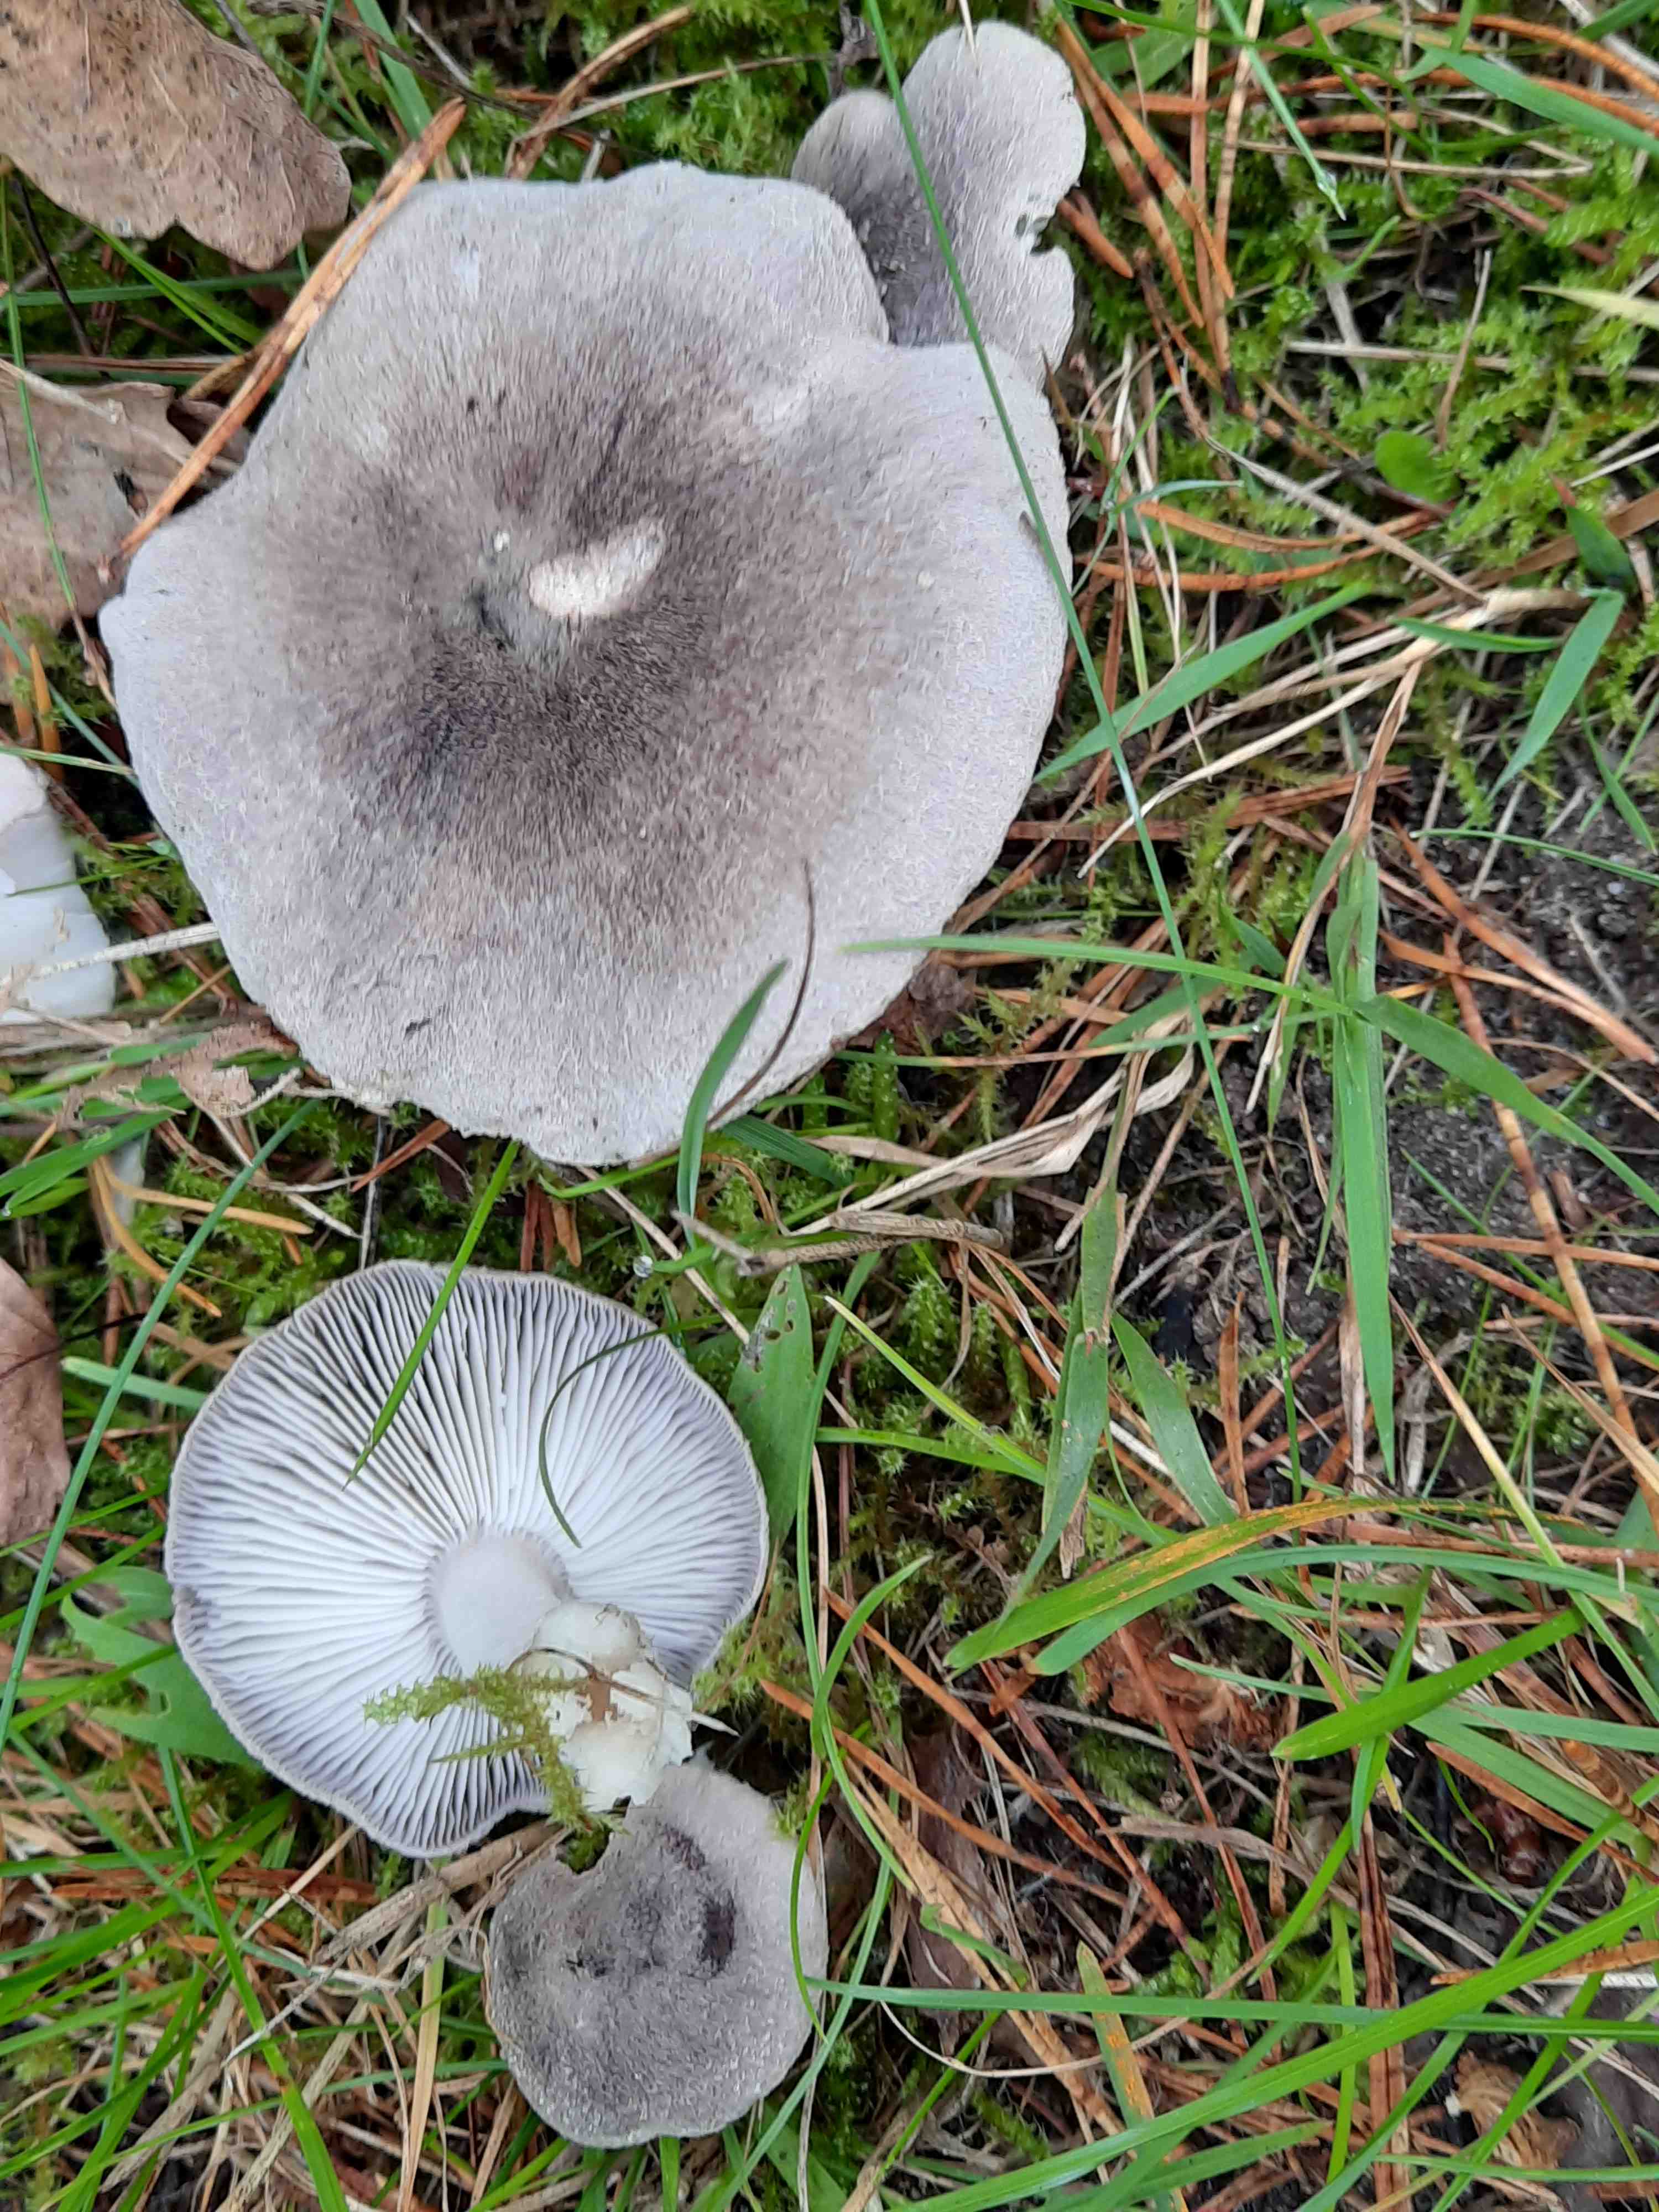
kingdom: Fungi
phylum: Basidiomycota
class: Agaricomycetes
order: Agaricales
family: Tricholomataceae
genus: Tricholoma
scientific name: Tricholoma terreum
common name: jordfarvet ridderhat
